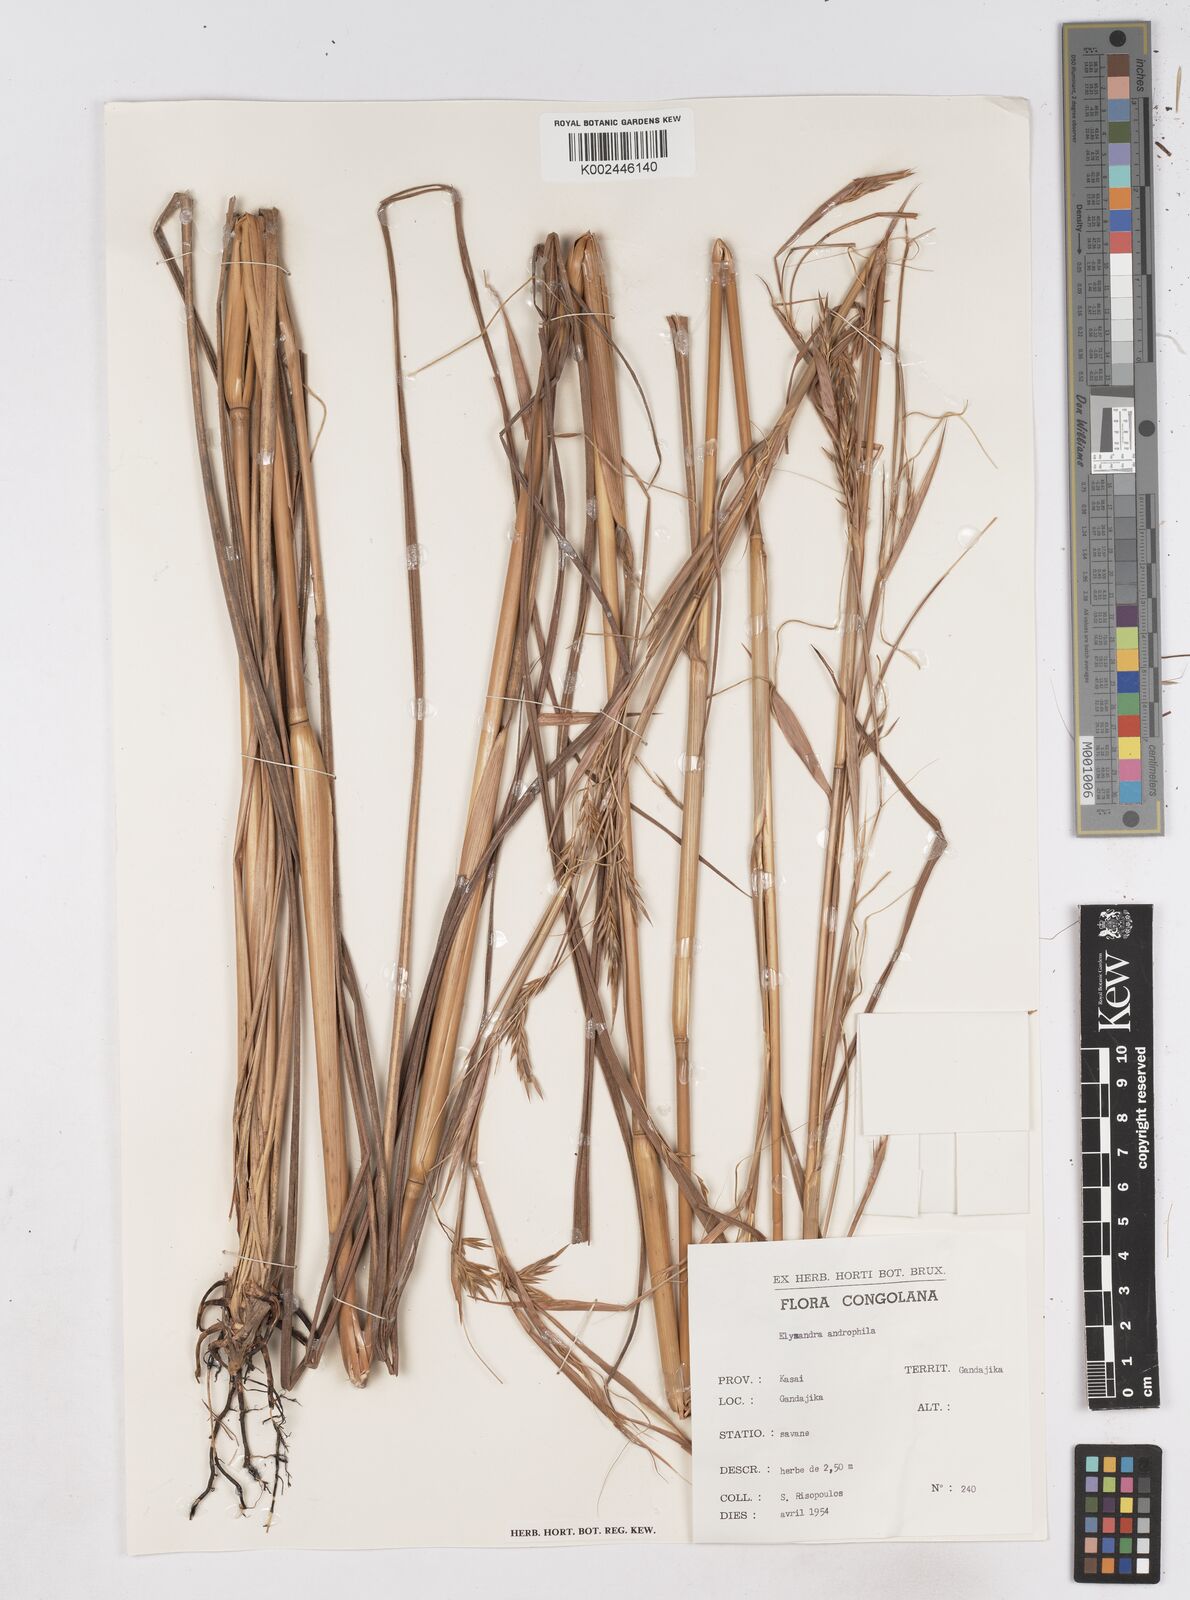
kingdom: Plantae
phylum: Tracheophyta
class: Liliopsida
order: Poales
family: Poaceae
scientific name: Poaceae
